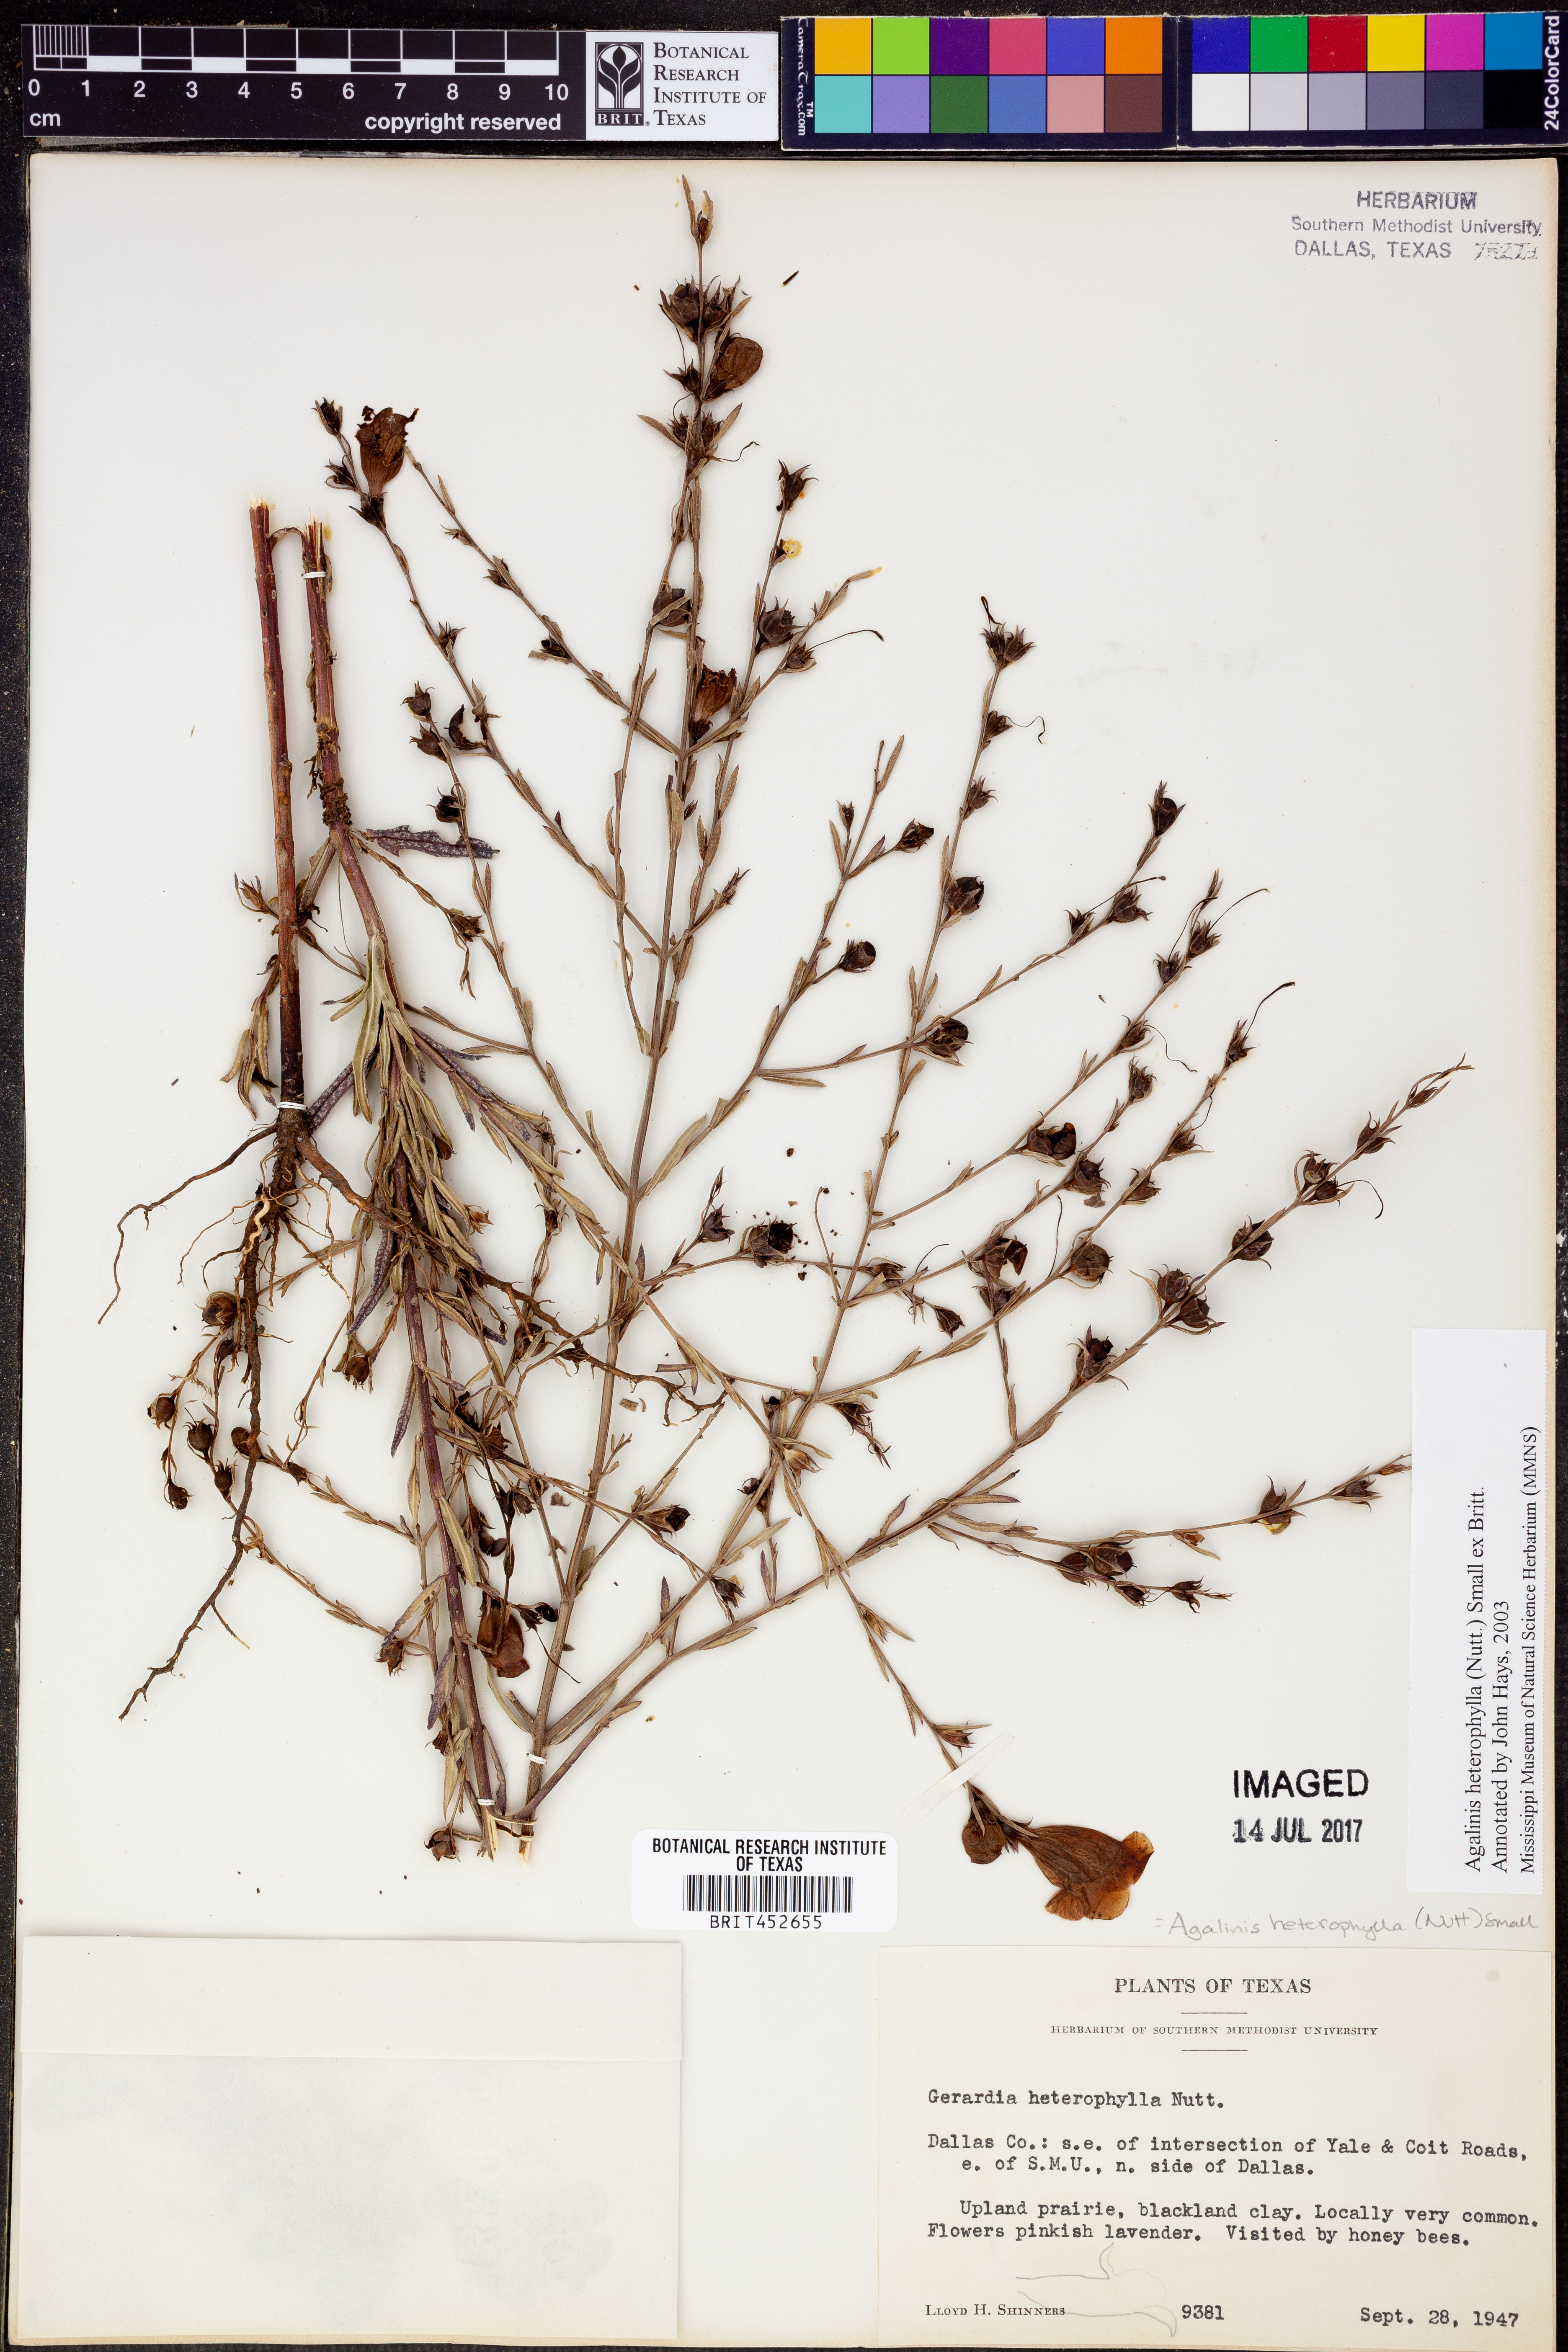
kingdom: Plantae
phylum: Tracheophyta
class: Magnoliopsida
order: Lamiales
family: Orobanchaceae
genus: Agalinis
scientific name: Agalinis heterophylla
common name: Prairie agalinis
